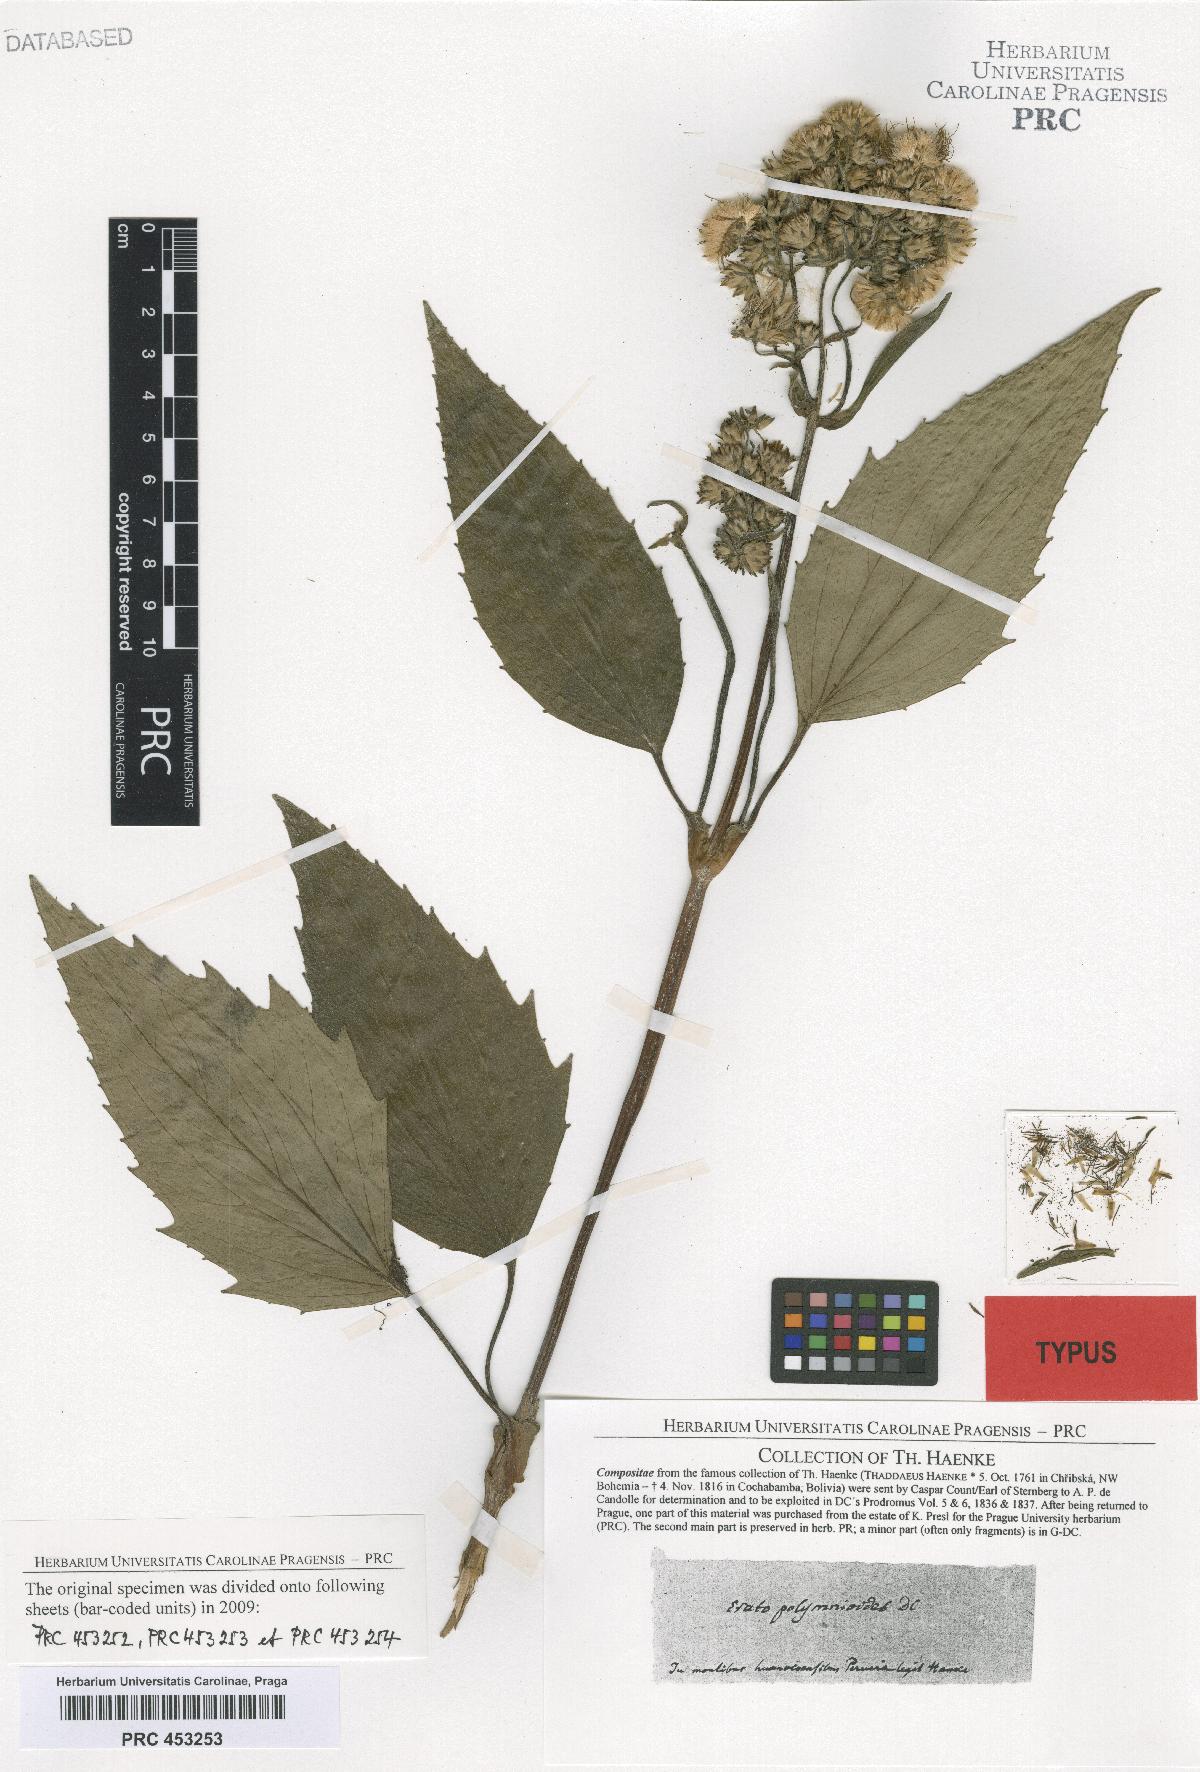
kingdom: Plantae
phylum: Tracheophyta
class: Magnoliopsida
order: Asterales
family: Asteraceae
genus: Erato
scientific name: Erato polymnioides
